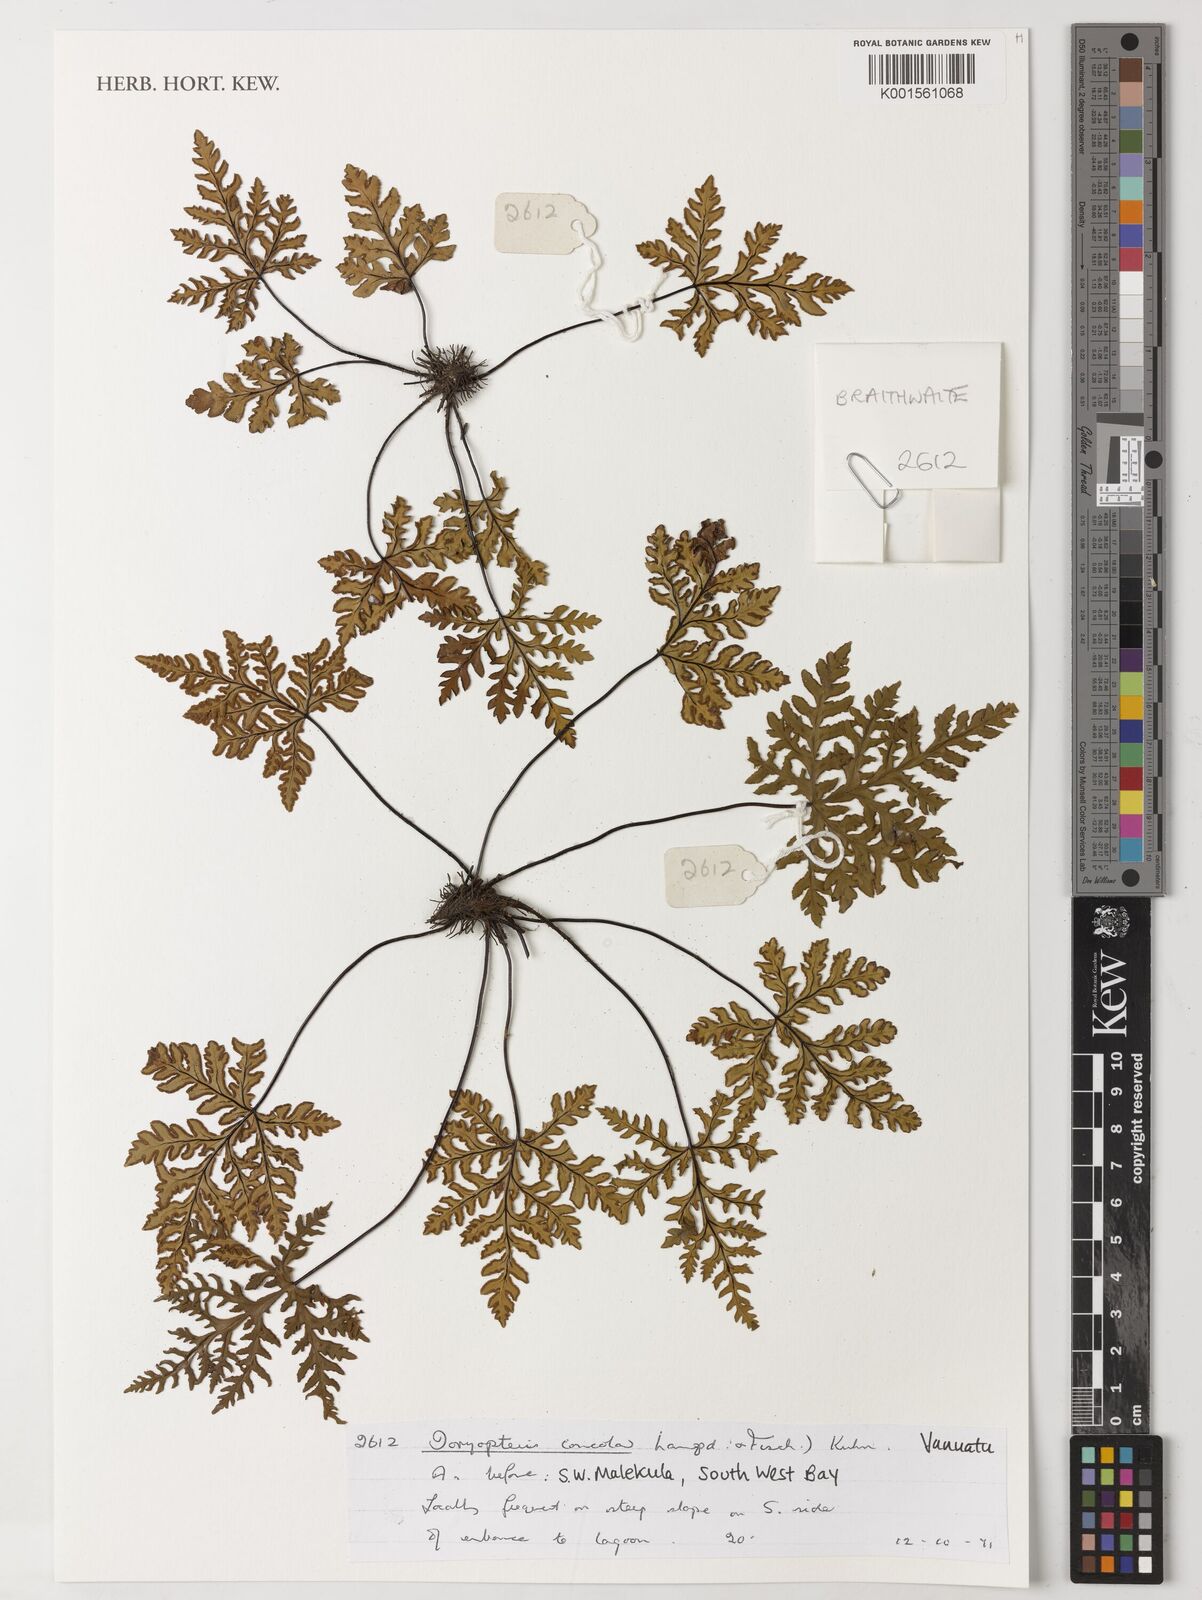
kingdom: Plantae
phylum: Tracheophyta
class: Polypodiopsida
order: Polypodiales
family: Pteridaceae
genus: Doryopteris
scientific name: Doryopteris concolor
